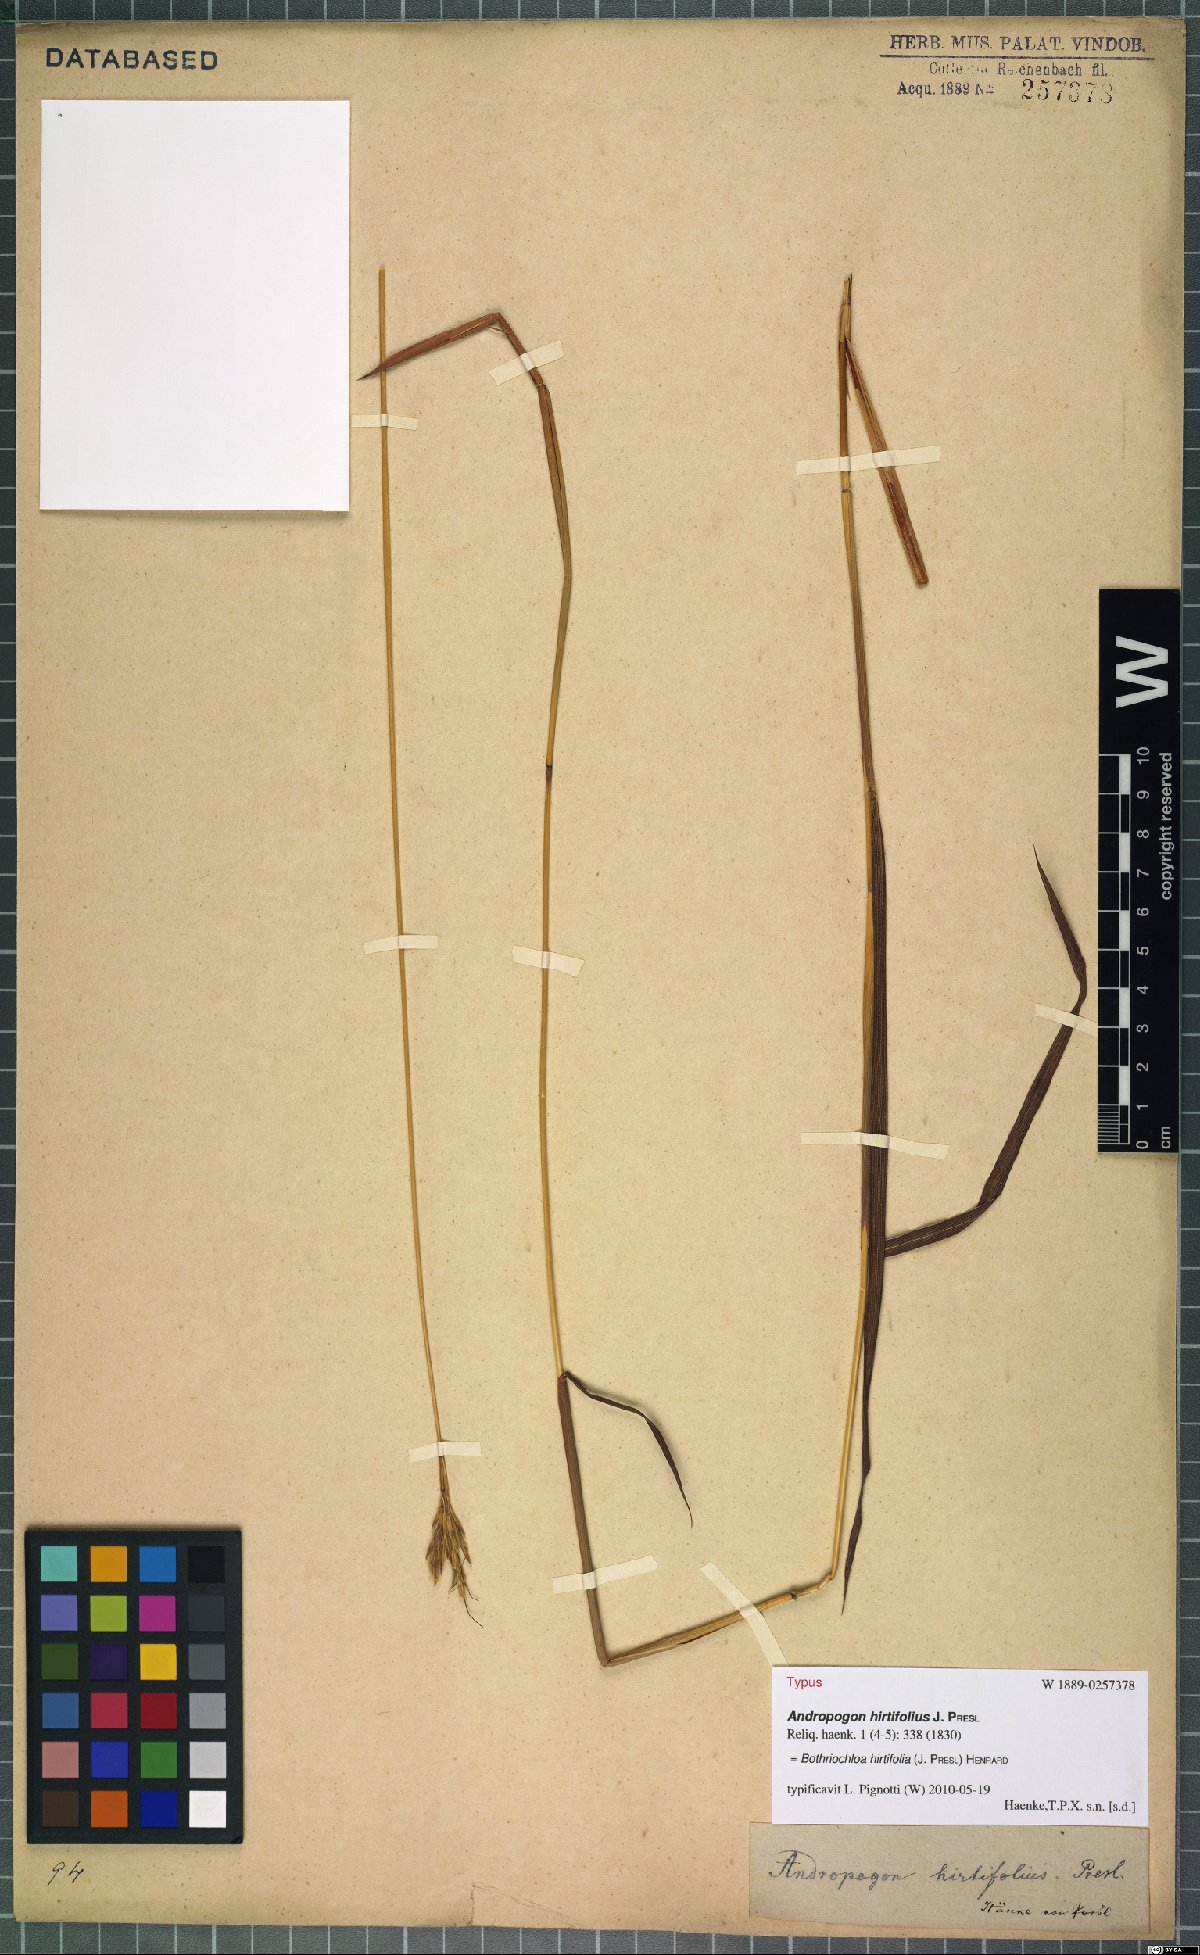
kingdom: Plantae
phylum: Tracheophyta
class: Liliopsida
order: Poales
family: Poaceae
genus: Bothriochloa
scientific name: Bothriochloa hirtifolia
